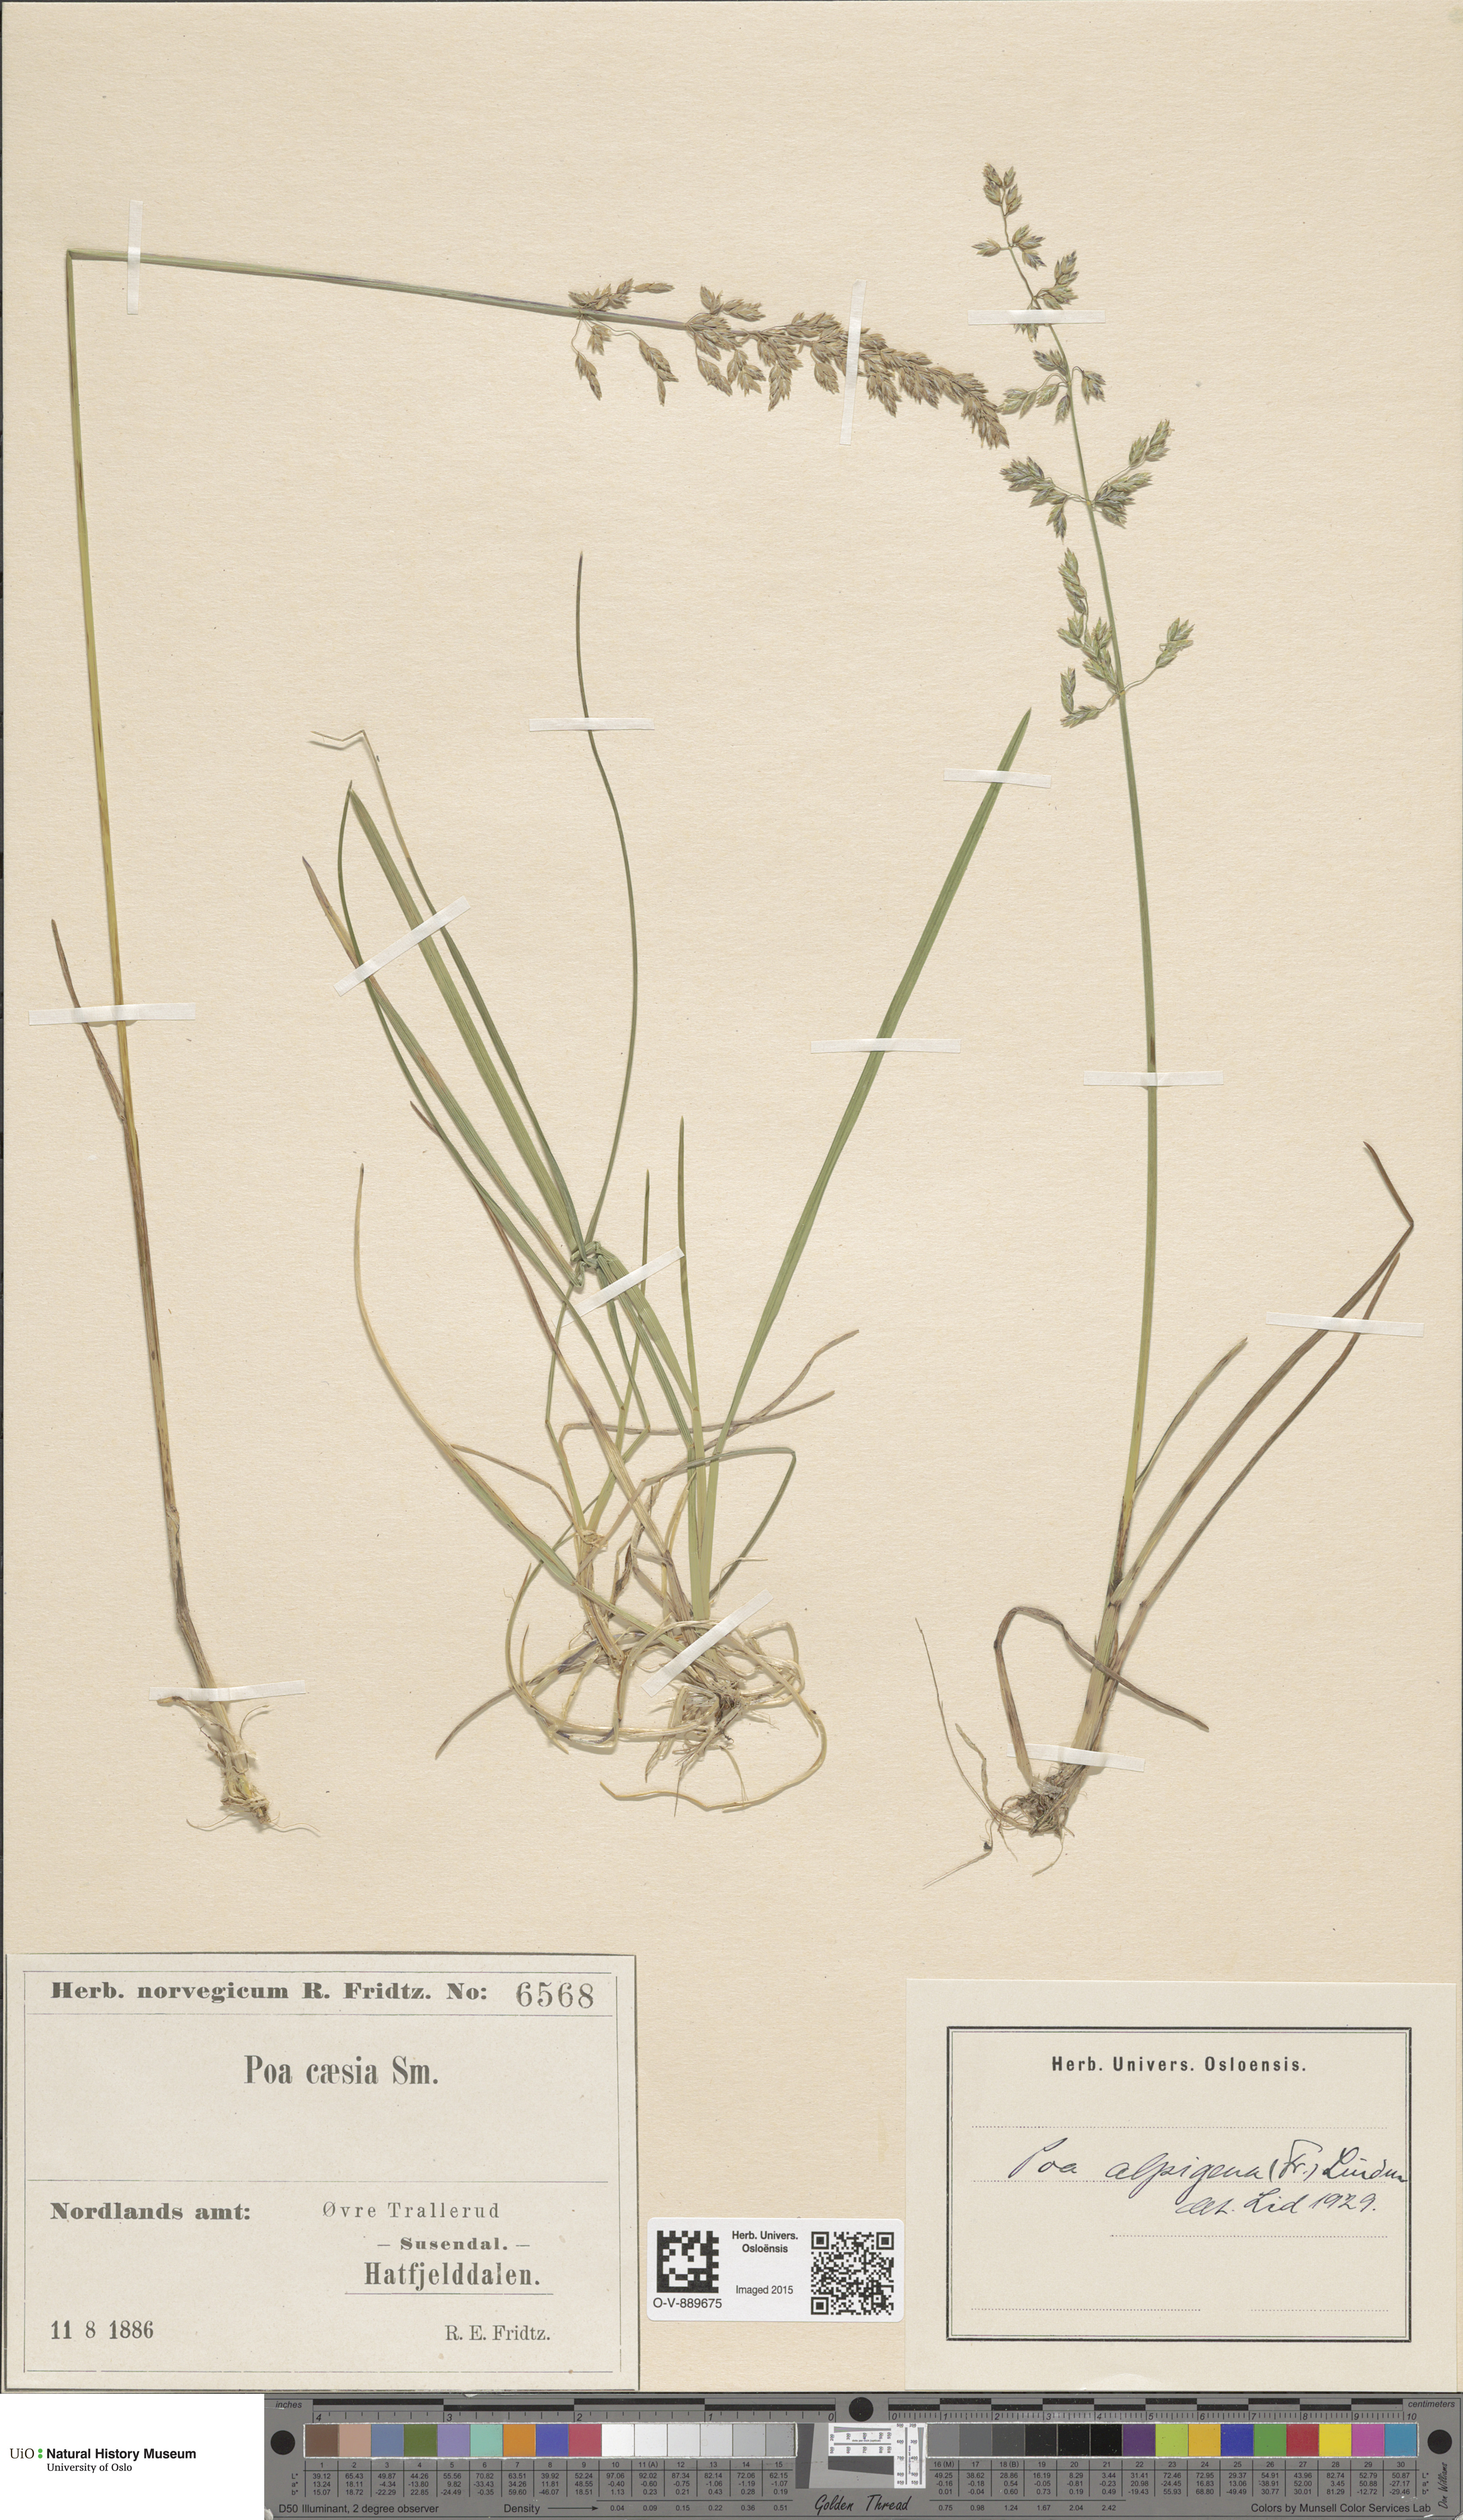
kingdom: Plantae
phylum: Tracheophyta
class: Liliopsida
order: Poales
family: Poaceae
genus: Poa
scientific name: Poa alpigena
